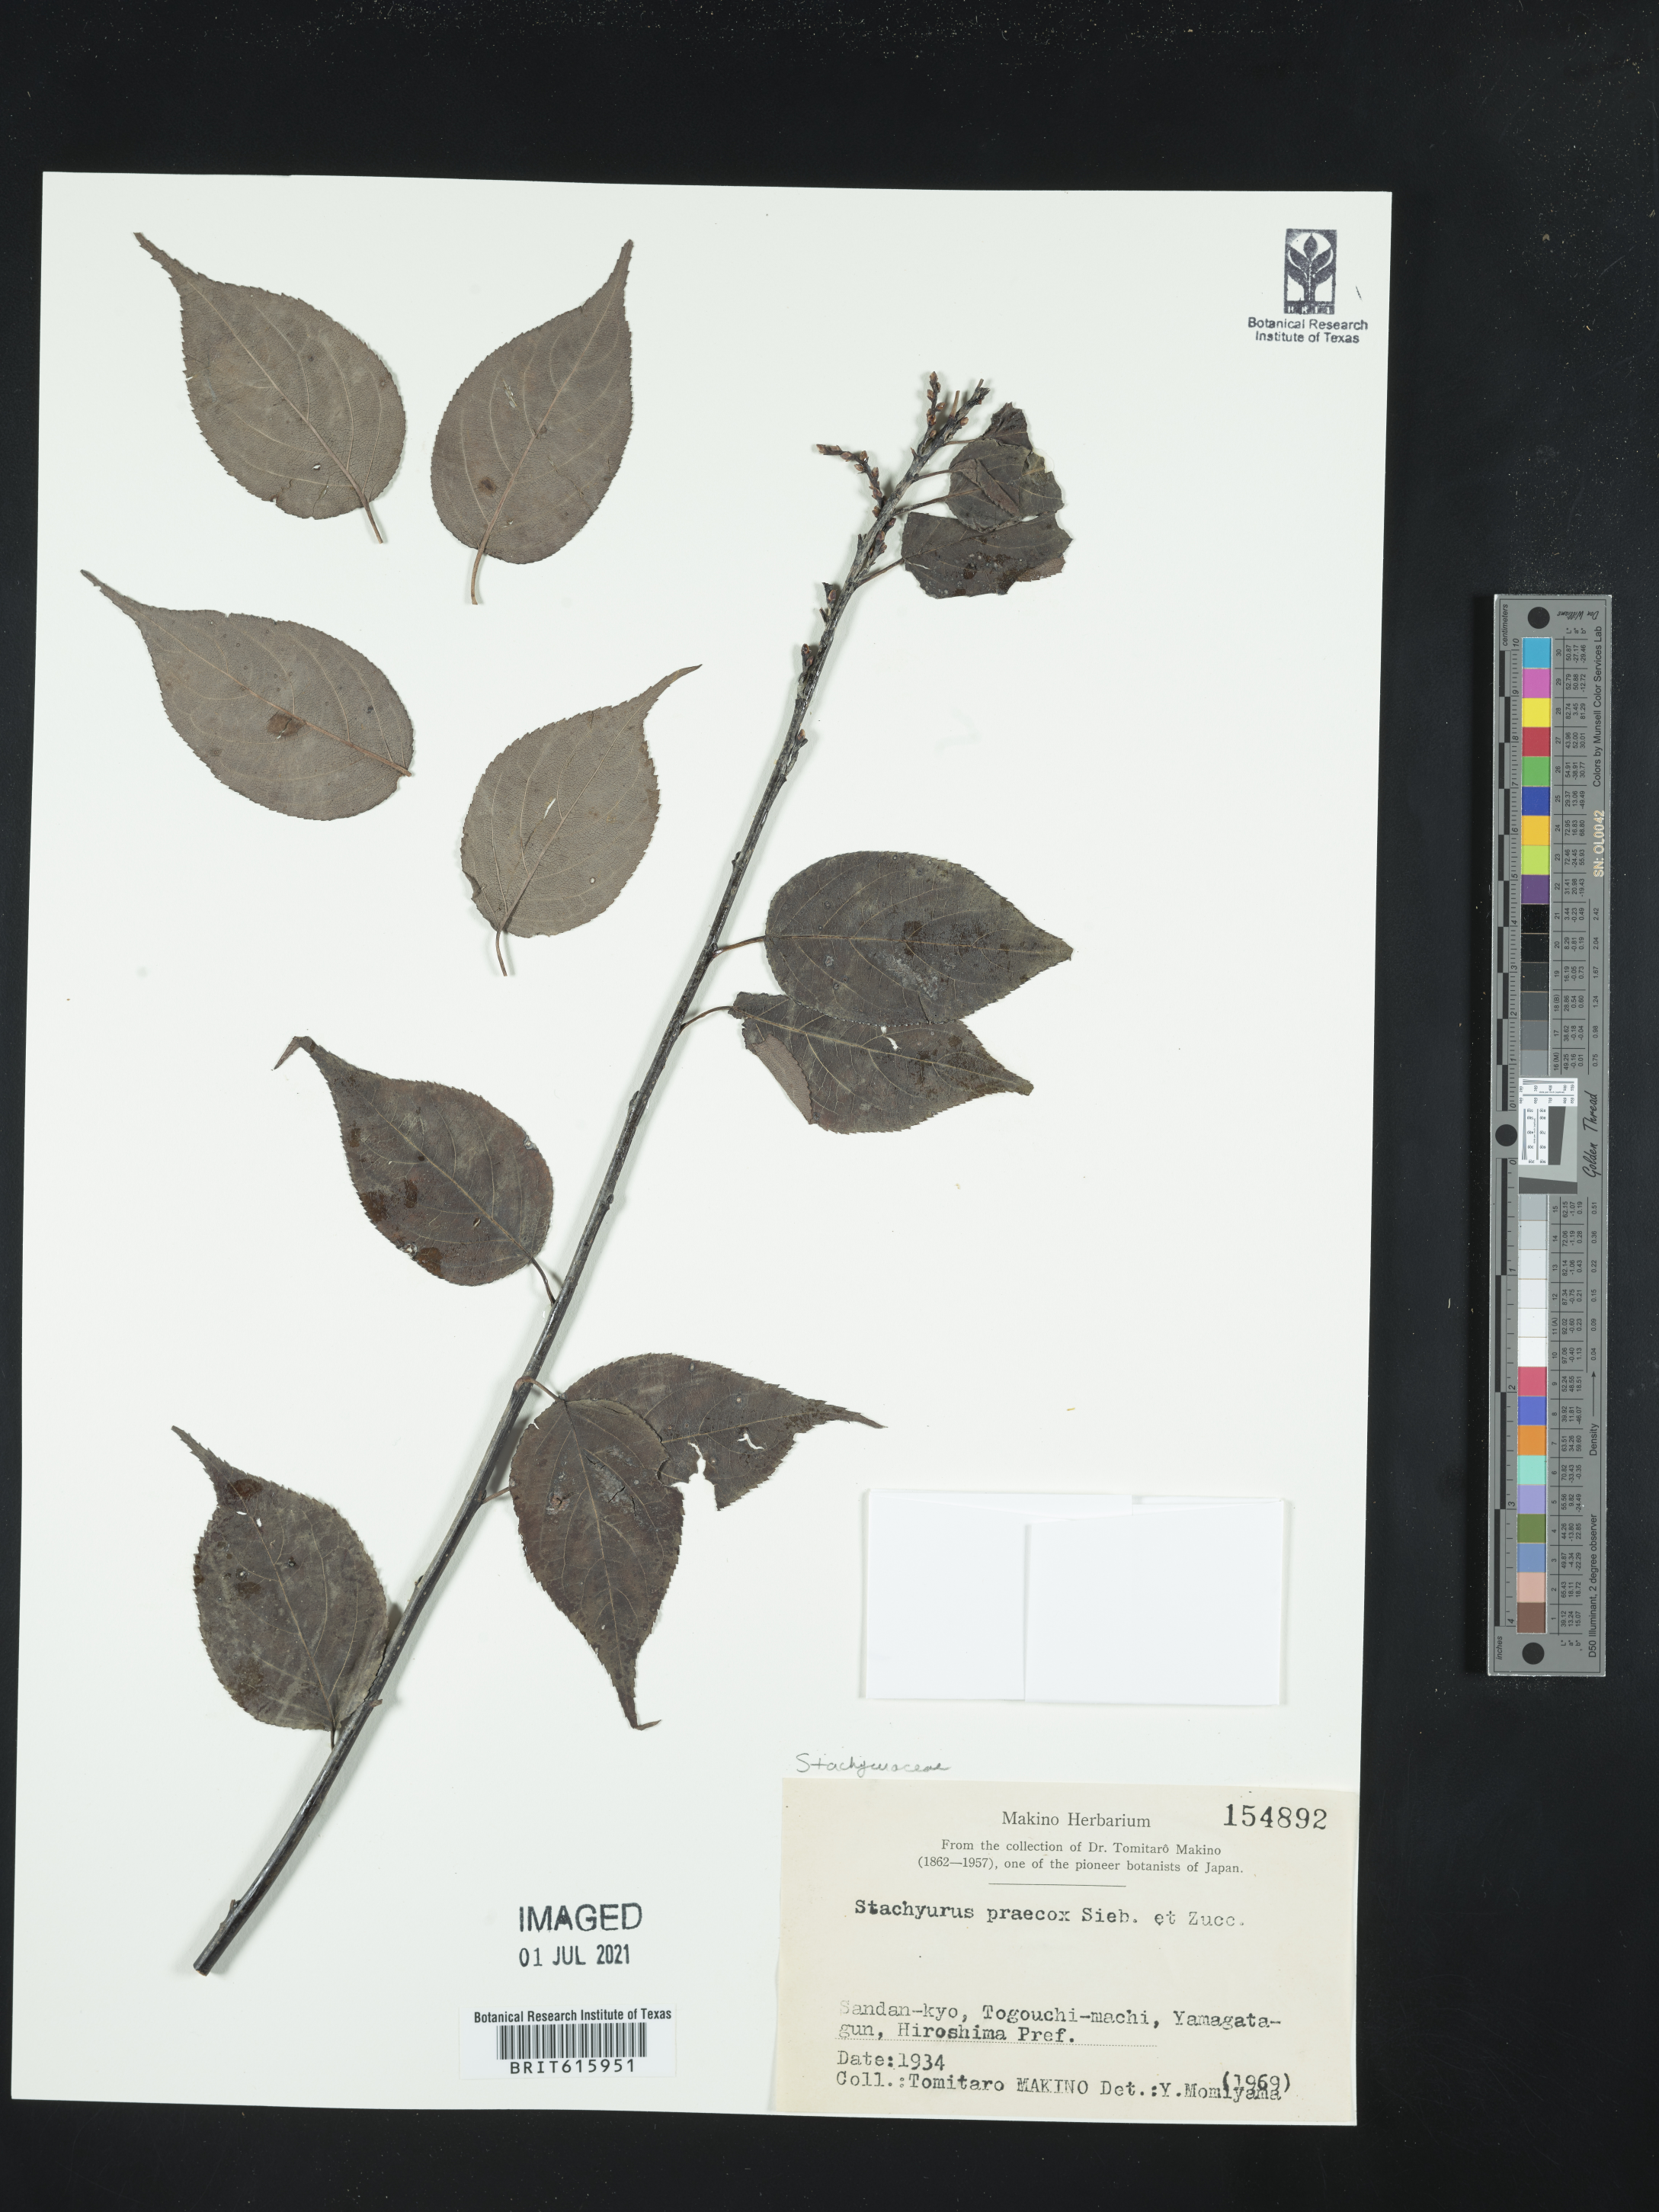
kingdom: Plantae
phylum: Tracheophyta
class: Magnoliopsida
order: Crossosomatales
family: Stachyuraceae
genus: Stachyurus
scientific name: Stachyurus praecox
